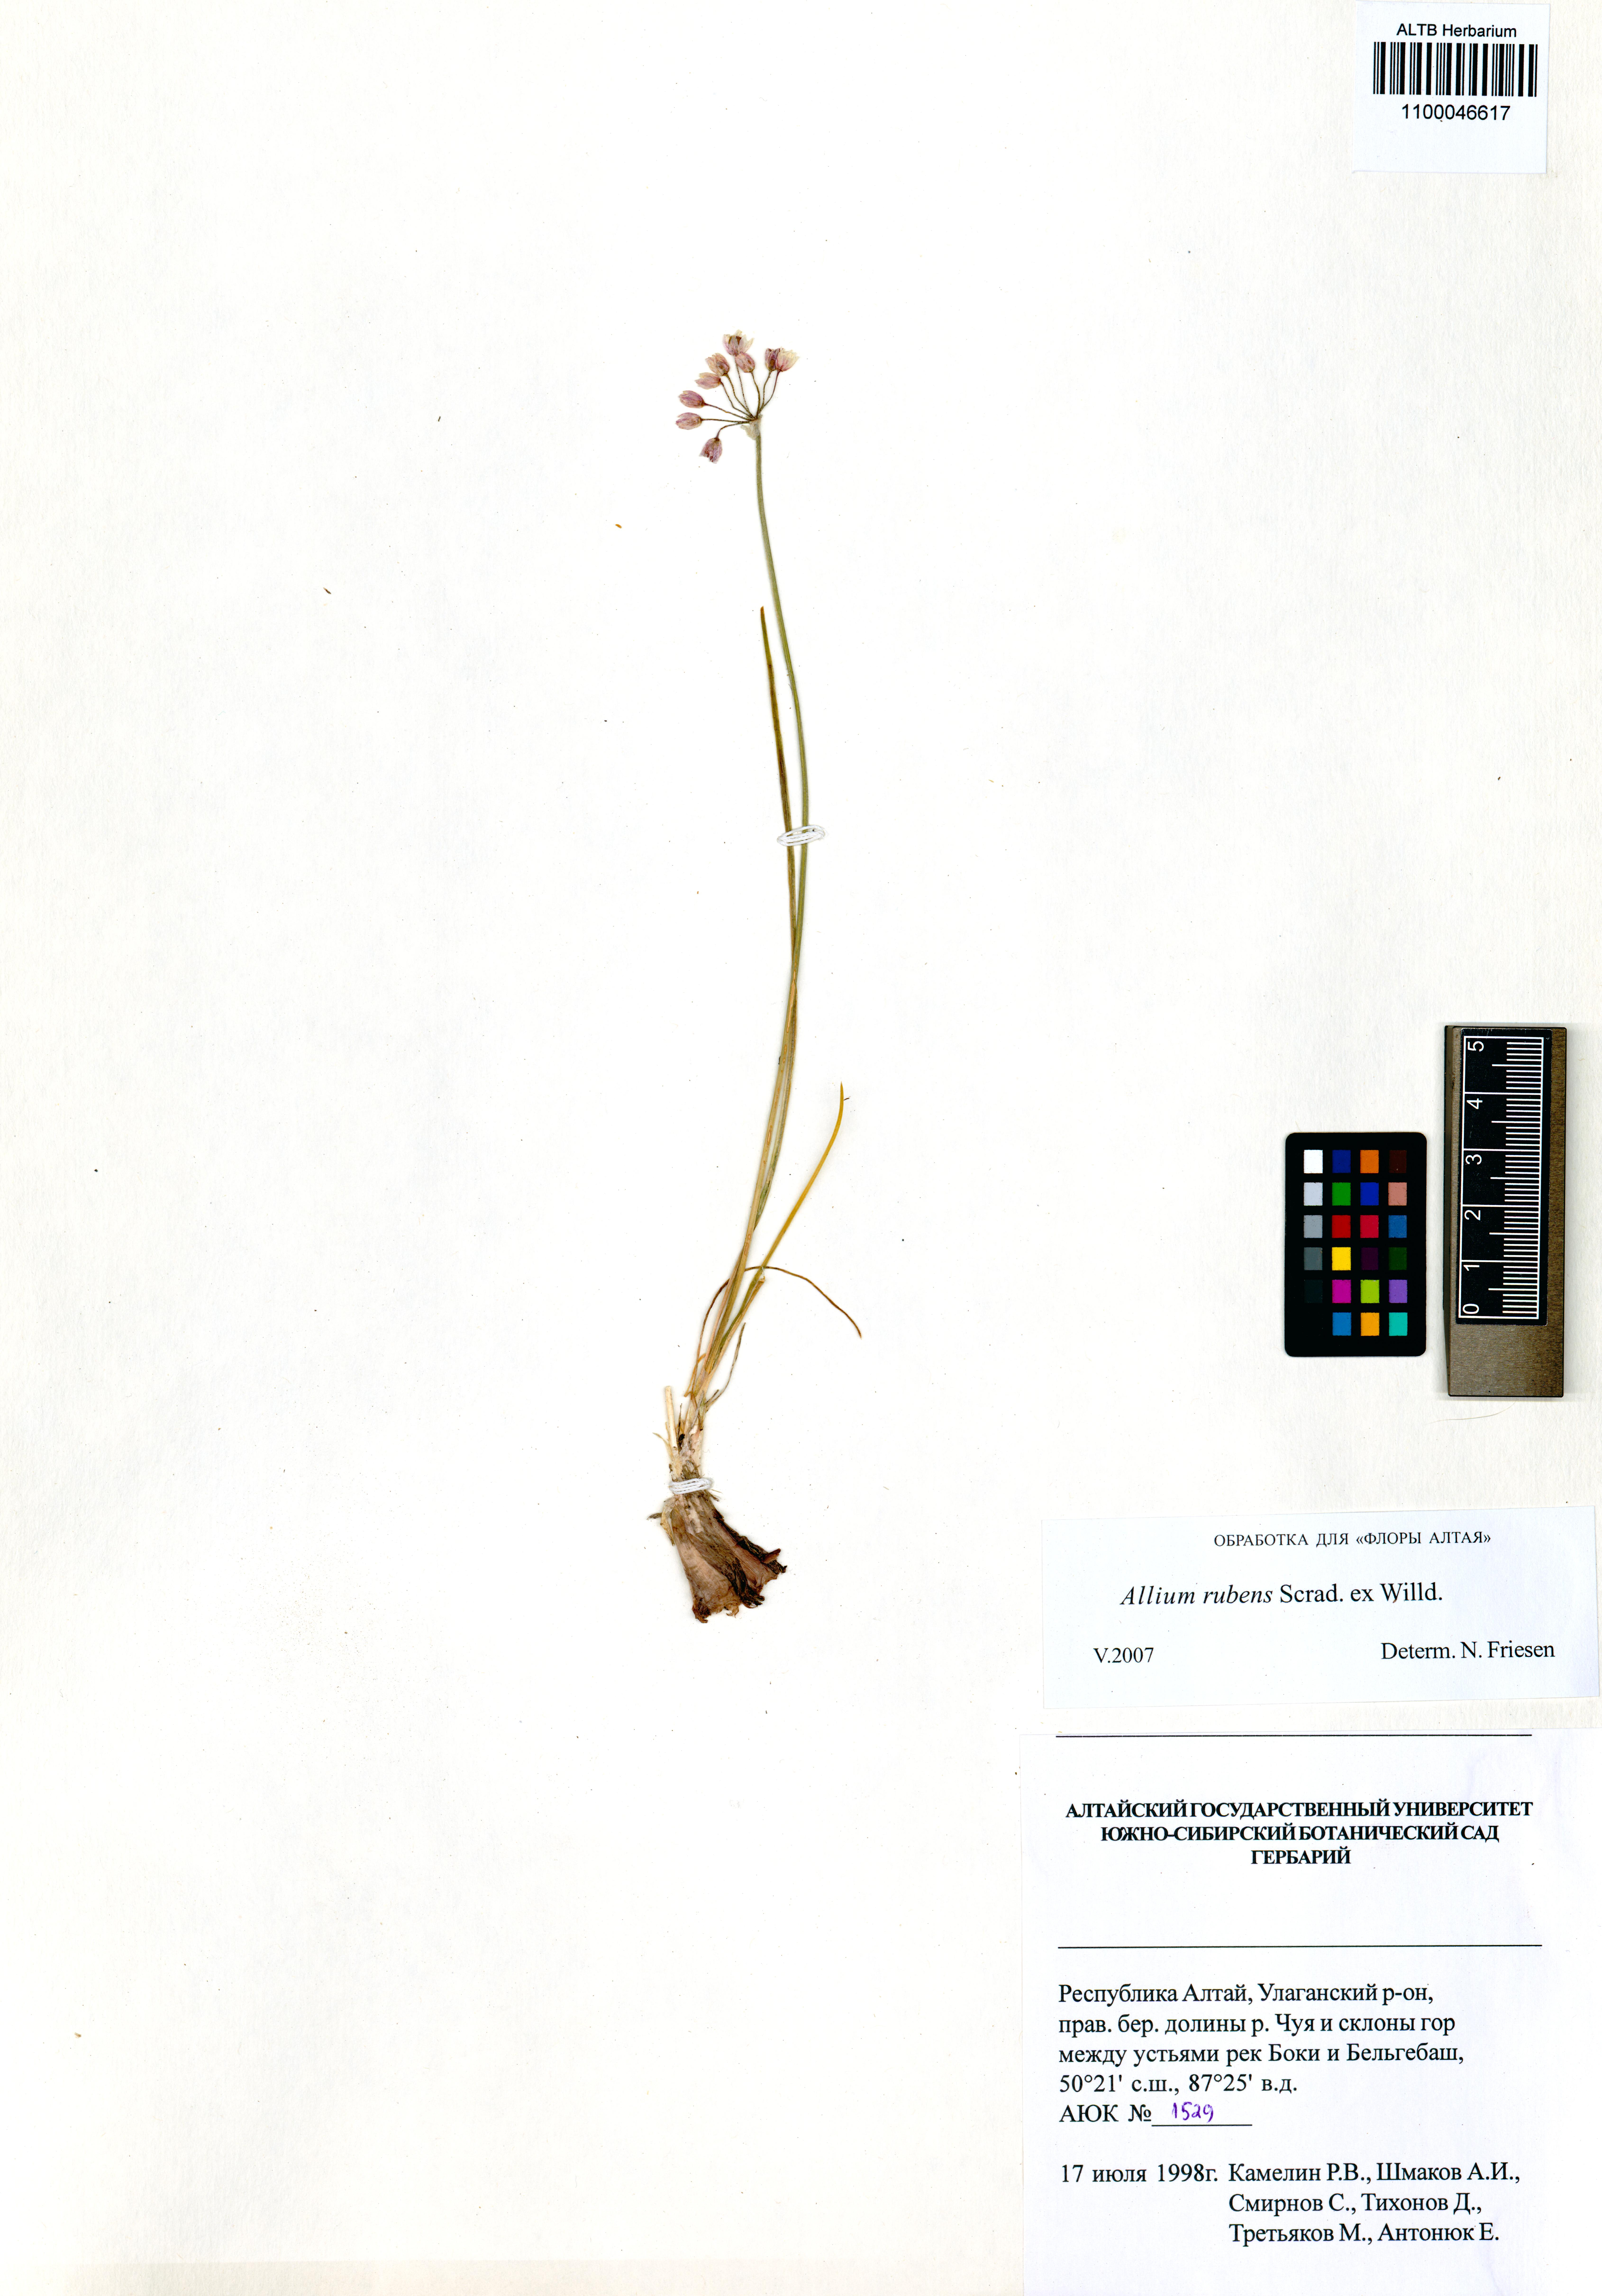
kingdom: Plantae
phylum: Tracheophyta
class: Liliopsida
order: Asparagales
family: Amaryllidaceae
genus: Allium
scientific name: Allium rubens
